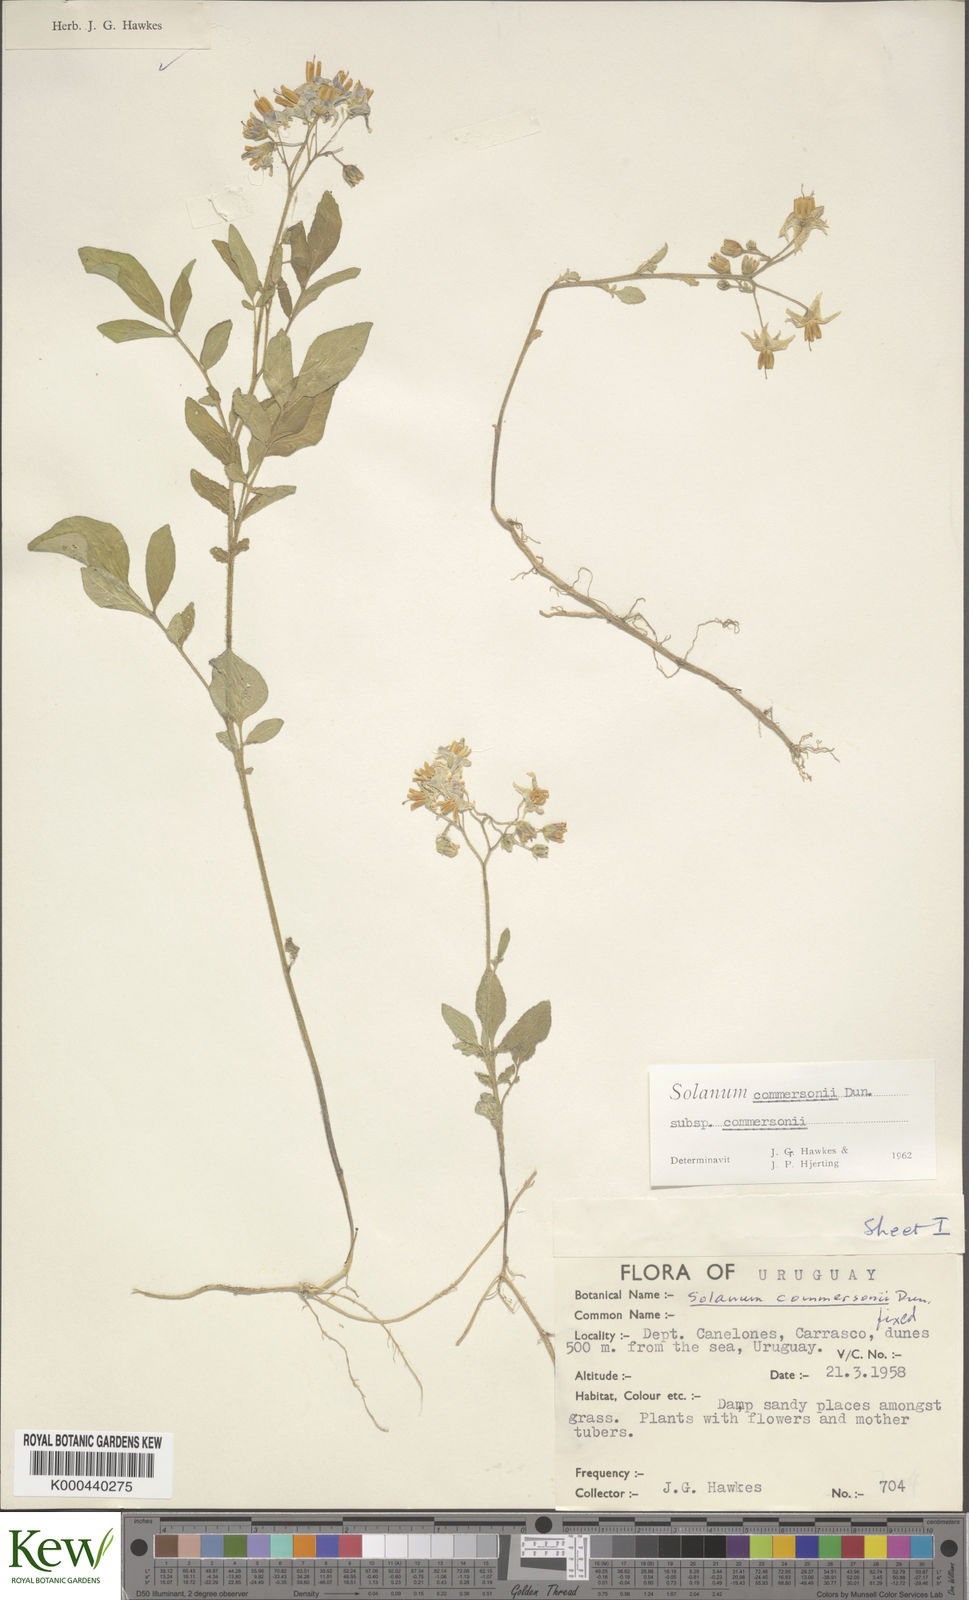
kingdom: Plantae
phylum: Tracheophyta
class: Magnoliopsida
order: Solanales
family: Solanaceae
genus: Solanum
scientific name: Solanum commersonii
